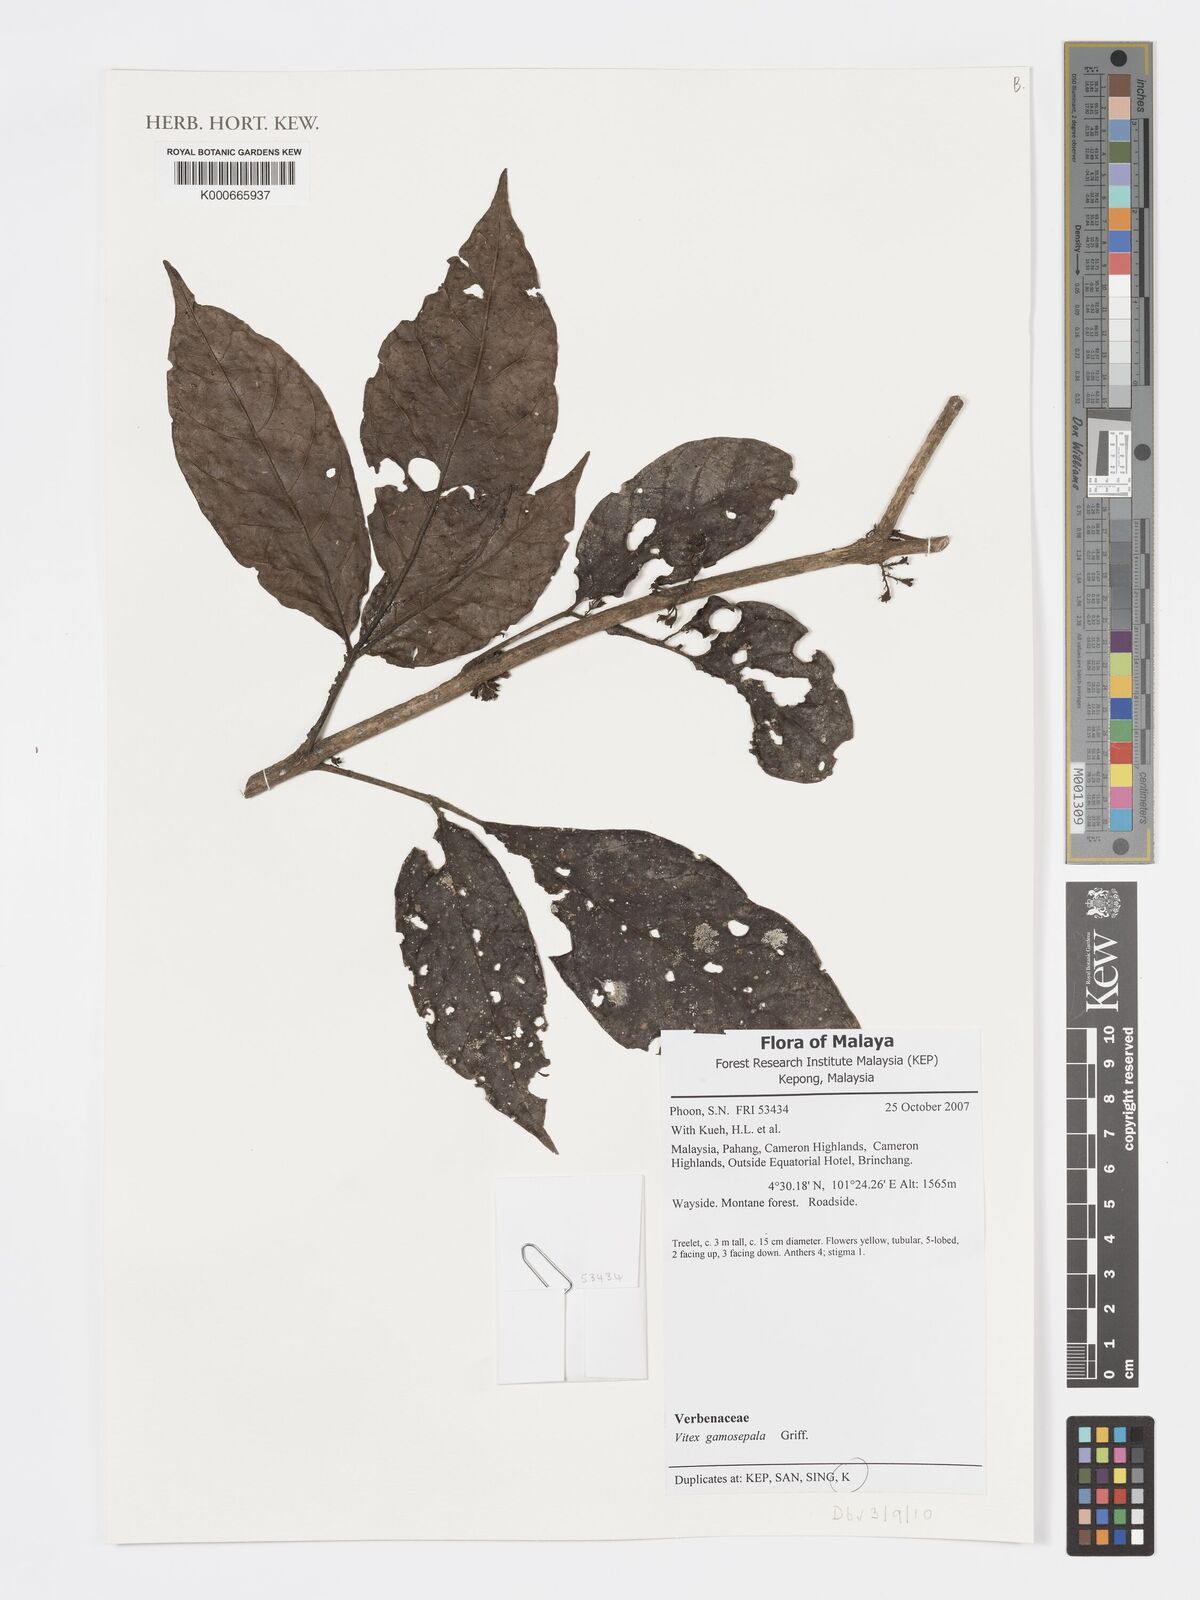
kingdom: Plantae
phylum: Tracheophyta
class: Magnoliopsida
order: Lamiales
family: Lamiaceae
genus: Vitex
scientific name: Vitex gamosepala
